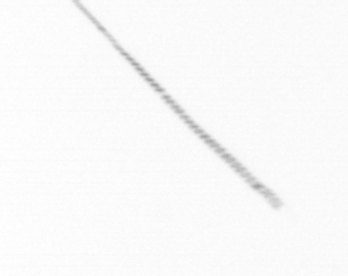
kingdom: Chromista
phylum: Ochrophyta
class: Bacillariophyceae
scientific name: Bacillariophyceae
